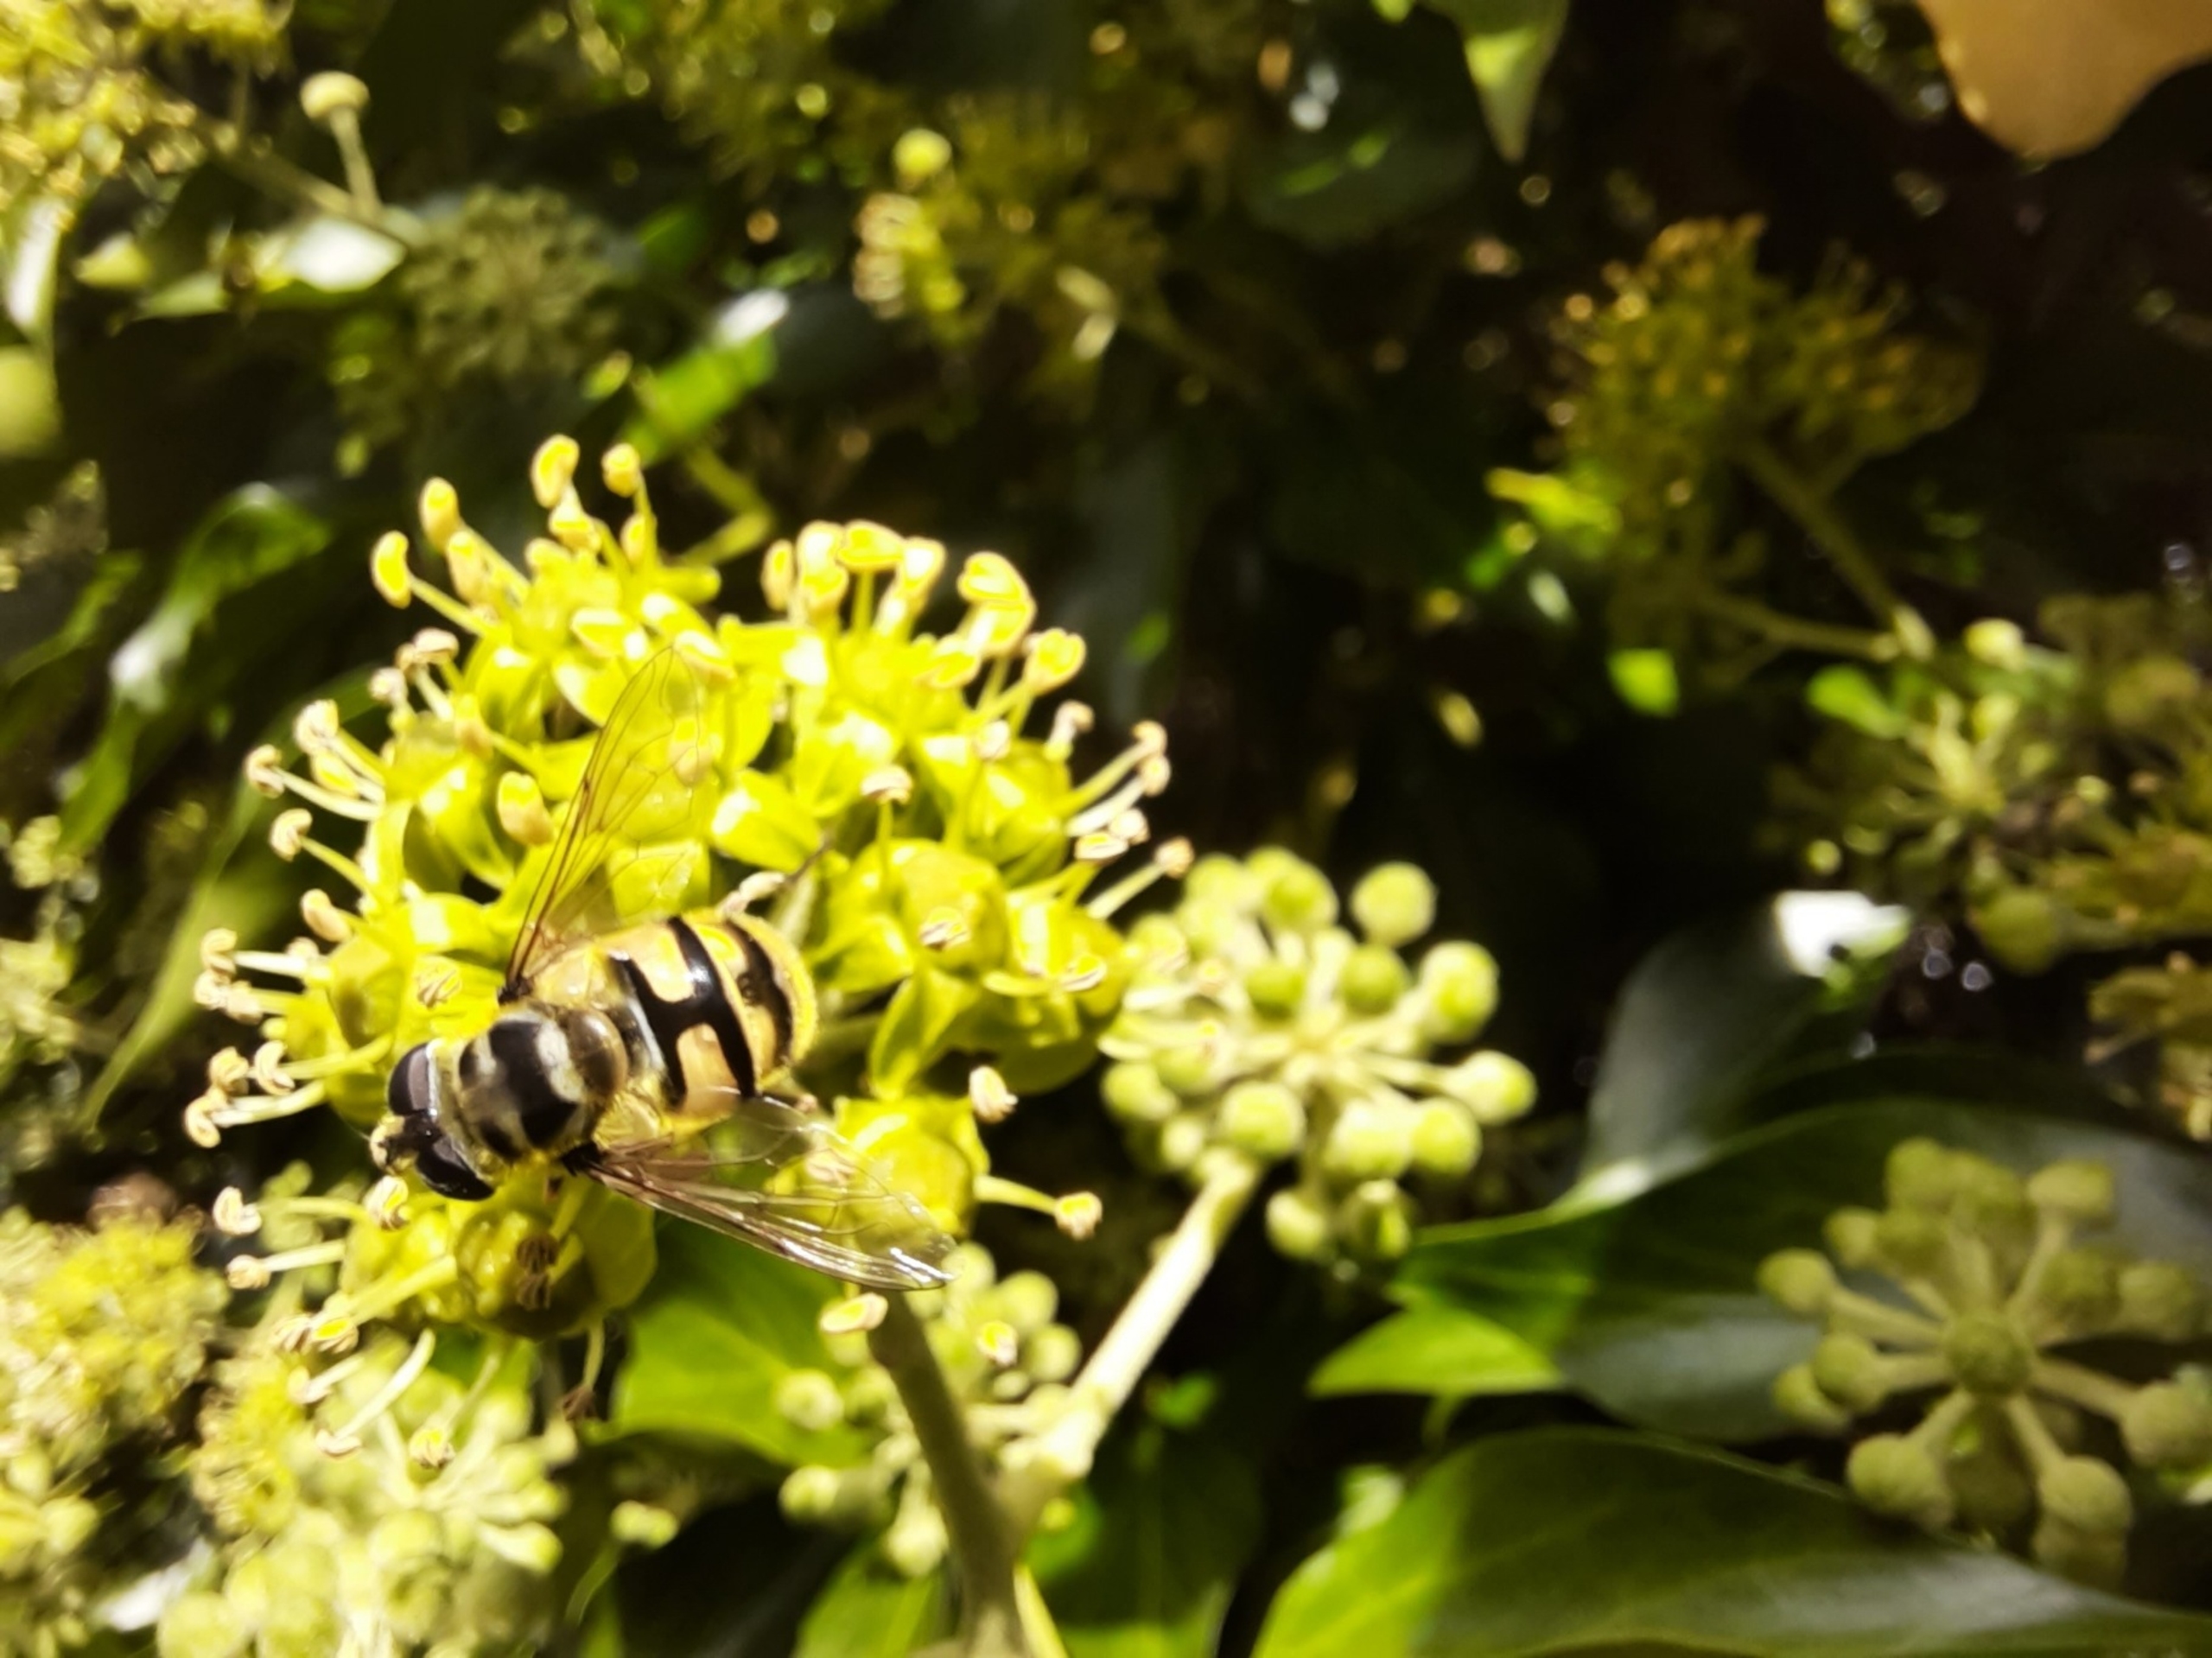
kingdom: Animalia
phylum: Arthropoda
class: Insecta
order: Diptera
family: Syrphidae
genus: Myathropa
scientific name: Myathropa florea
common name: Dødningehoved-svirreflue
